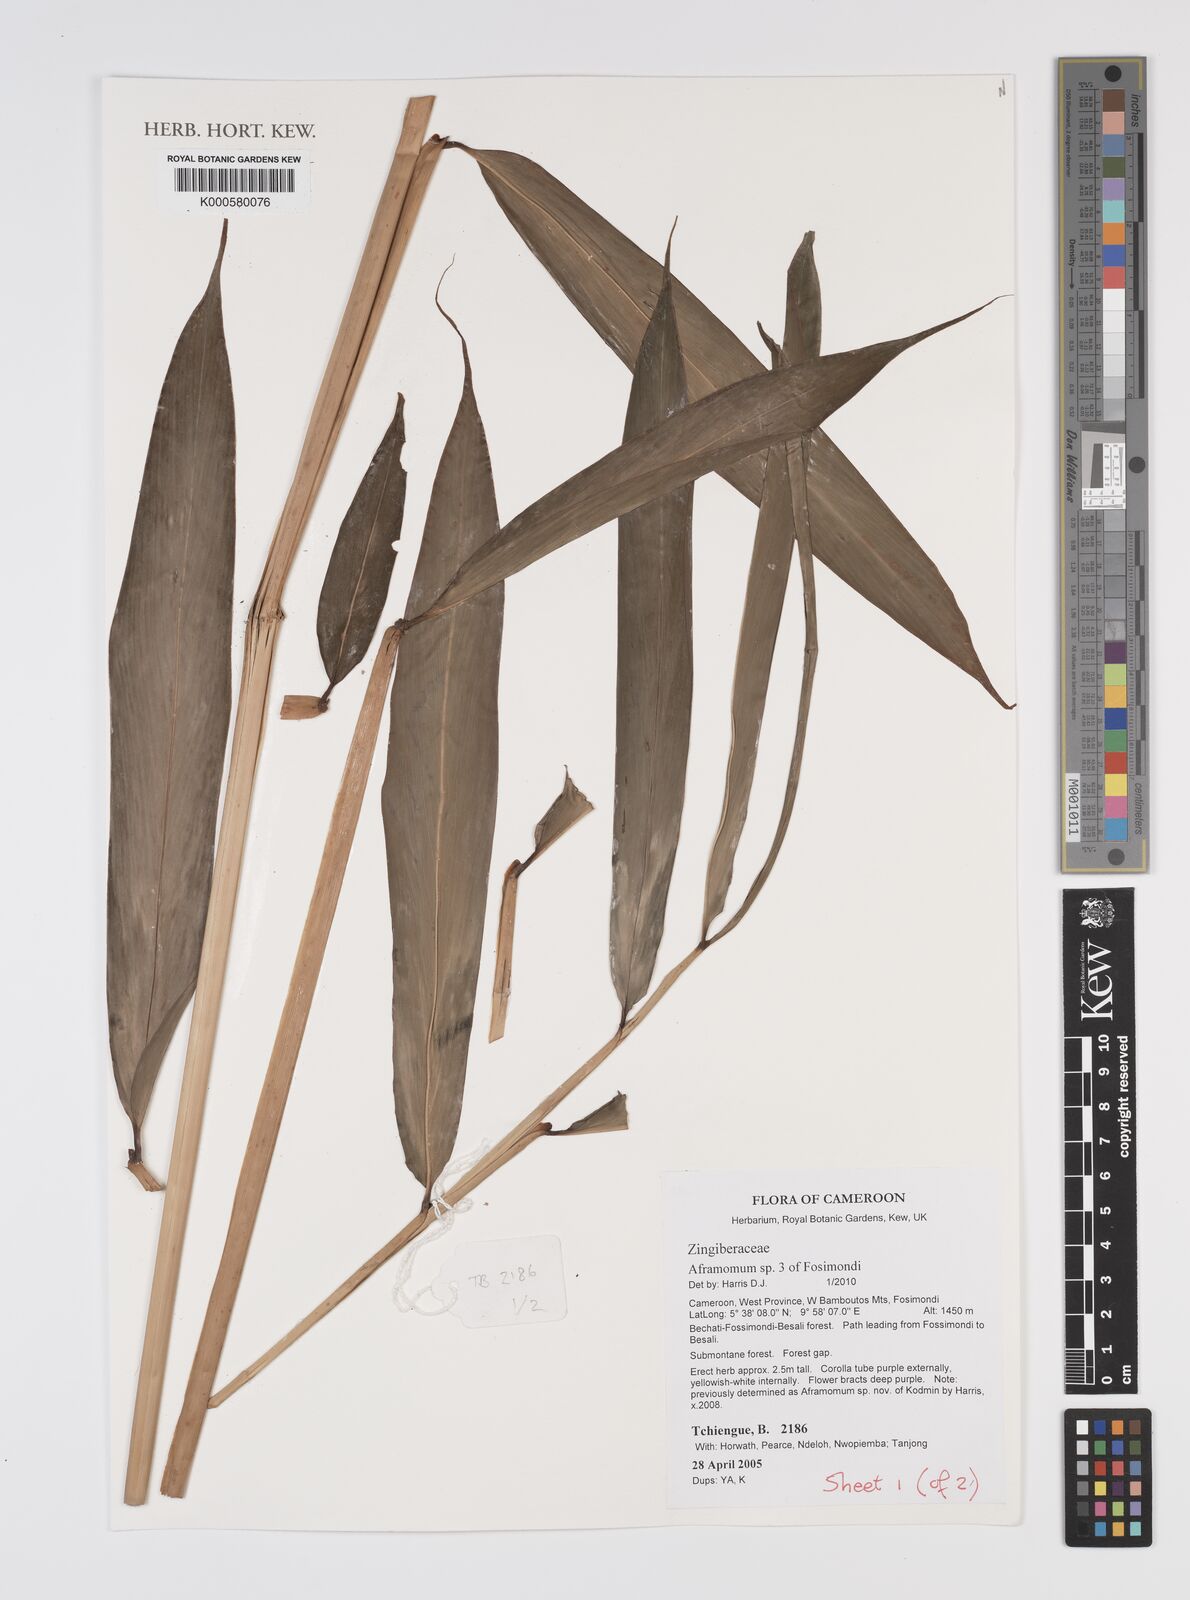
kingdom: Plantae
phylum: Tracheophyta
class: Liliopsida
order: Zingiberales
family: Zingiberaceae
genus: Aframomum
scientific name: Aframomum
